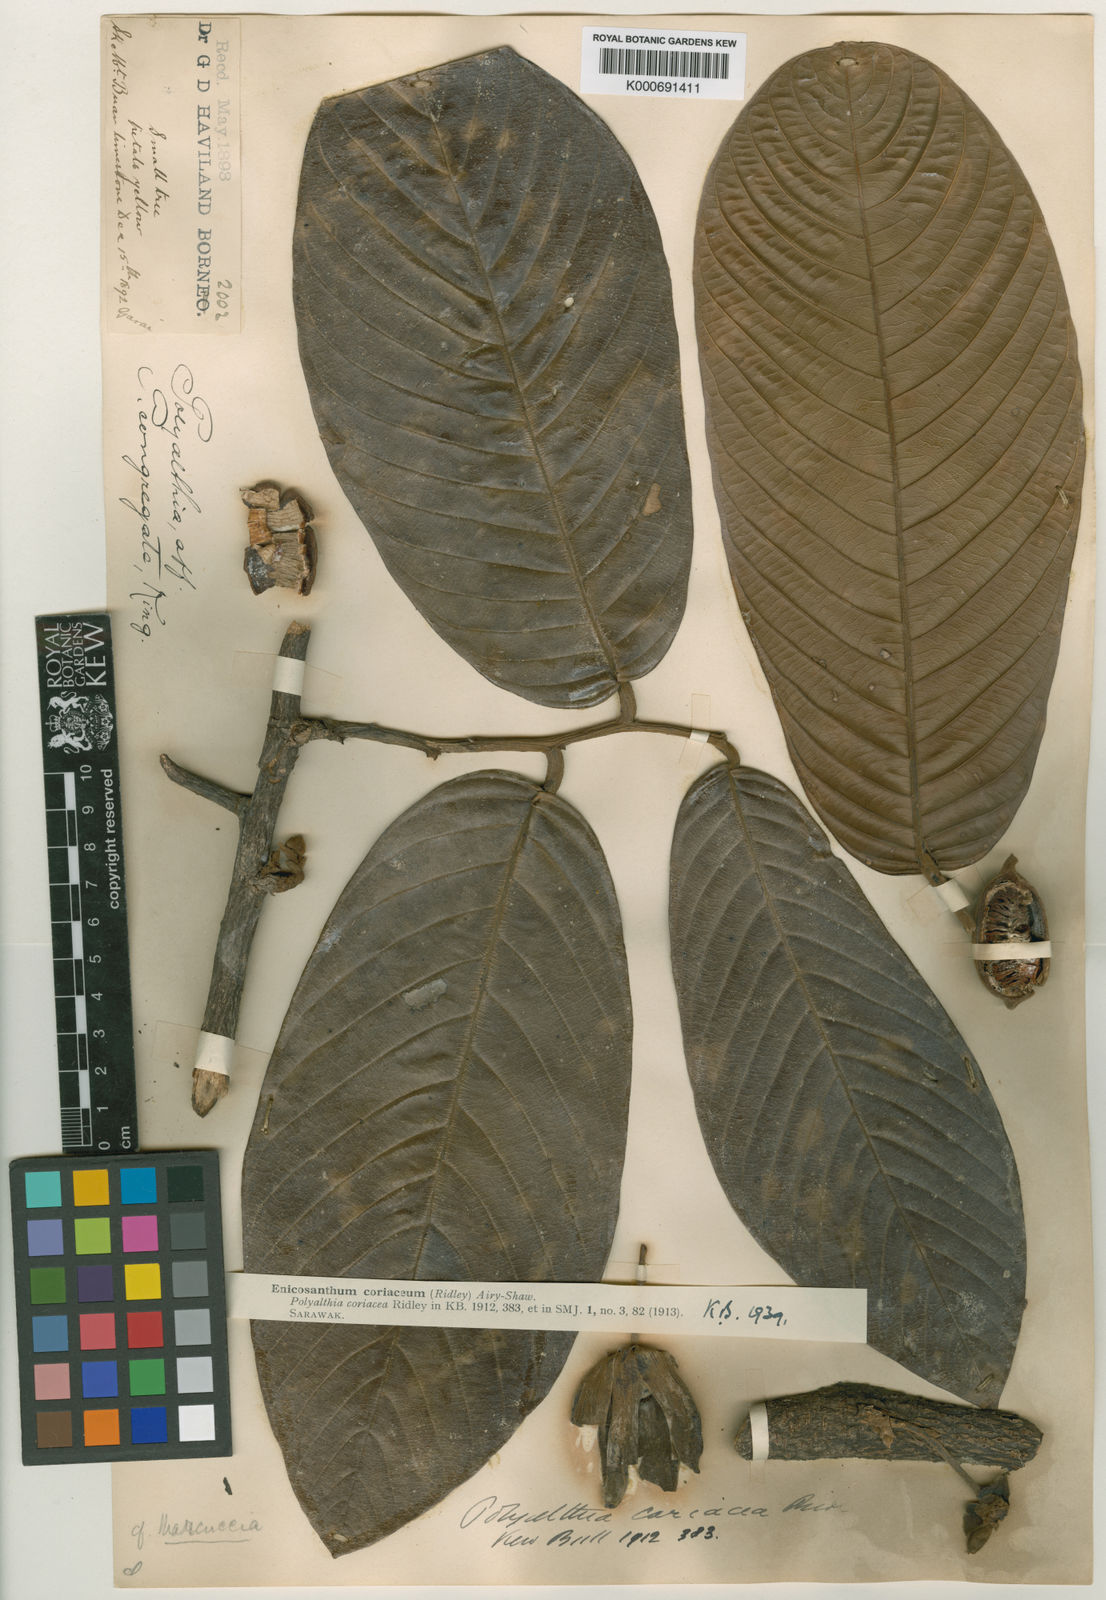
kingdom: Plantae
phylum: Tracheophyta
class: Magnoliopsida
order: Magnoliales
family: Annonaceae
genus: Enicosanthum
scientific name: Enicosanthum coriaceum
